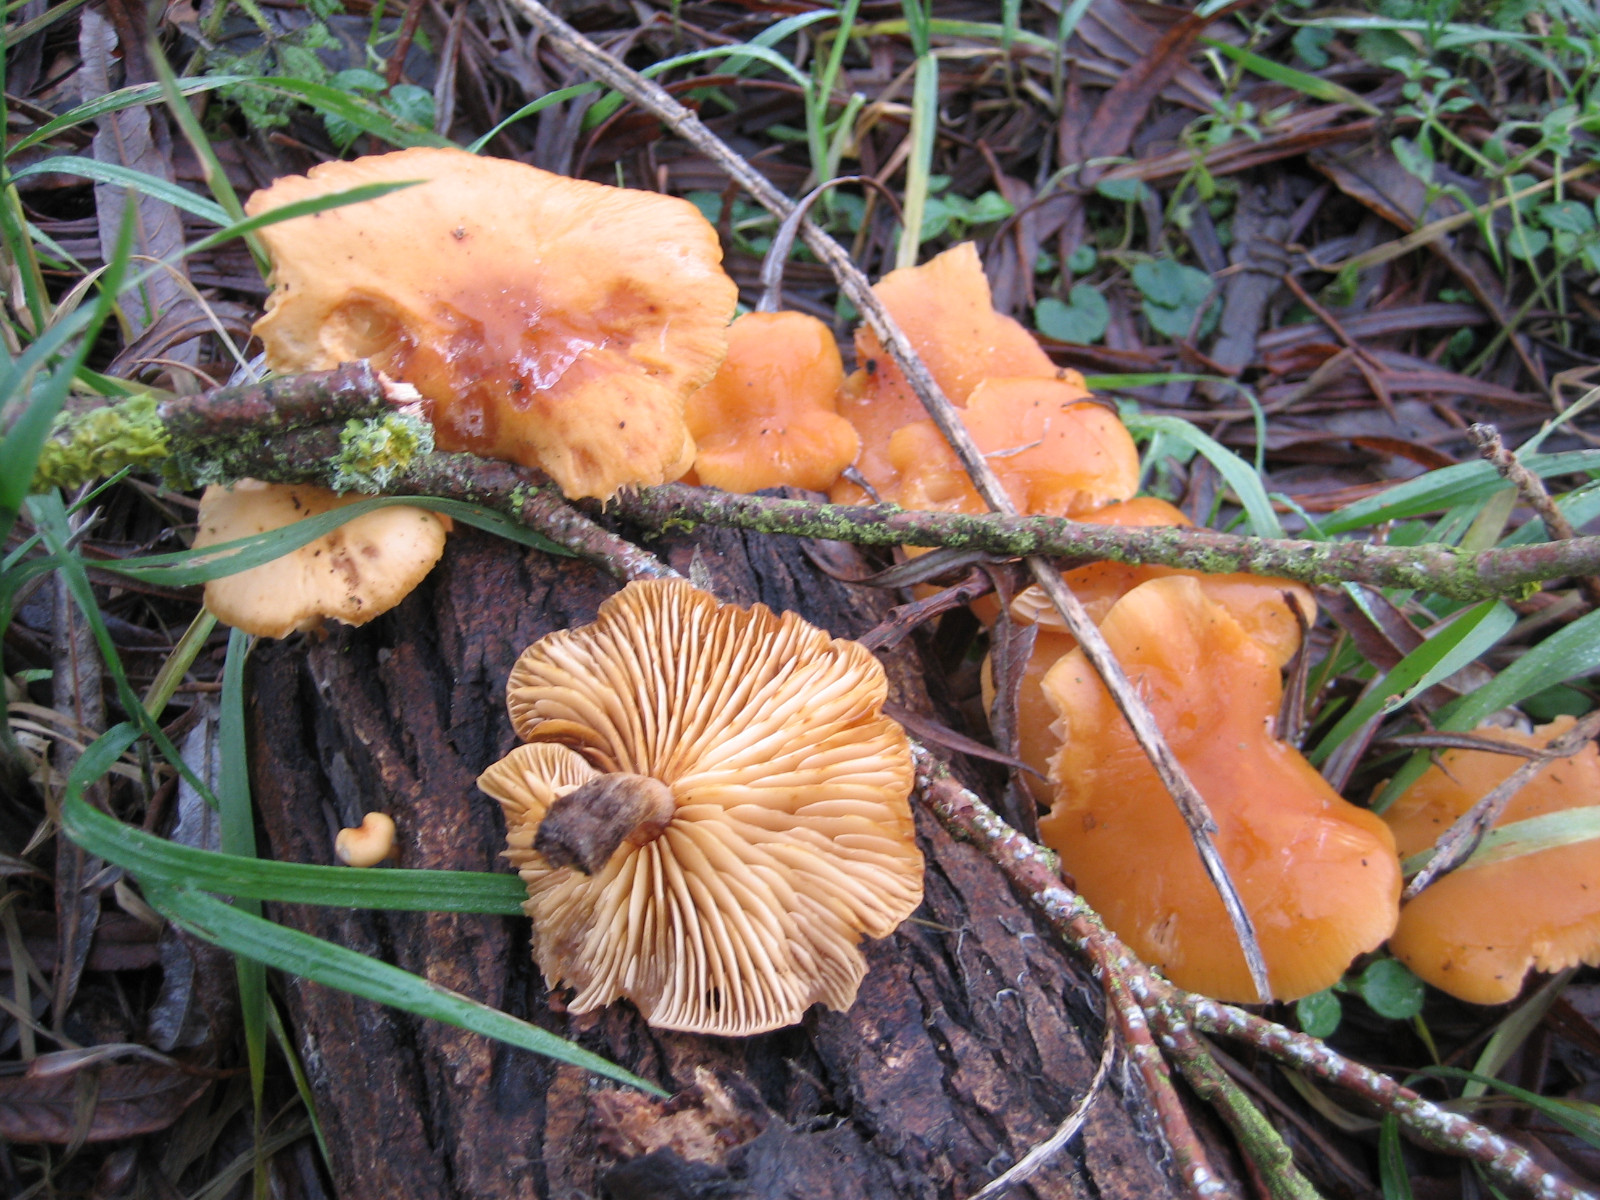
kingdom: Fungi
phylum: Basidiomycota
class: Agaricomycetes
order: Agaricales
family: Physalacriaceae
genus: Flammulina
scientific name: Flammulina
